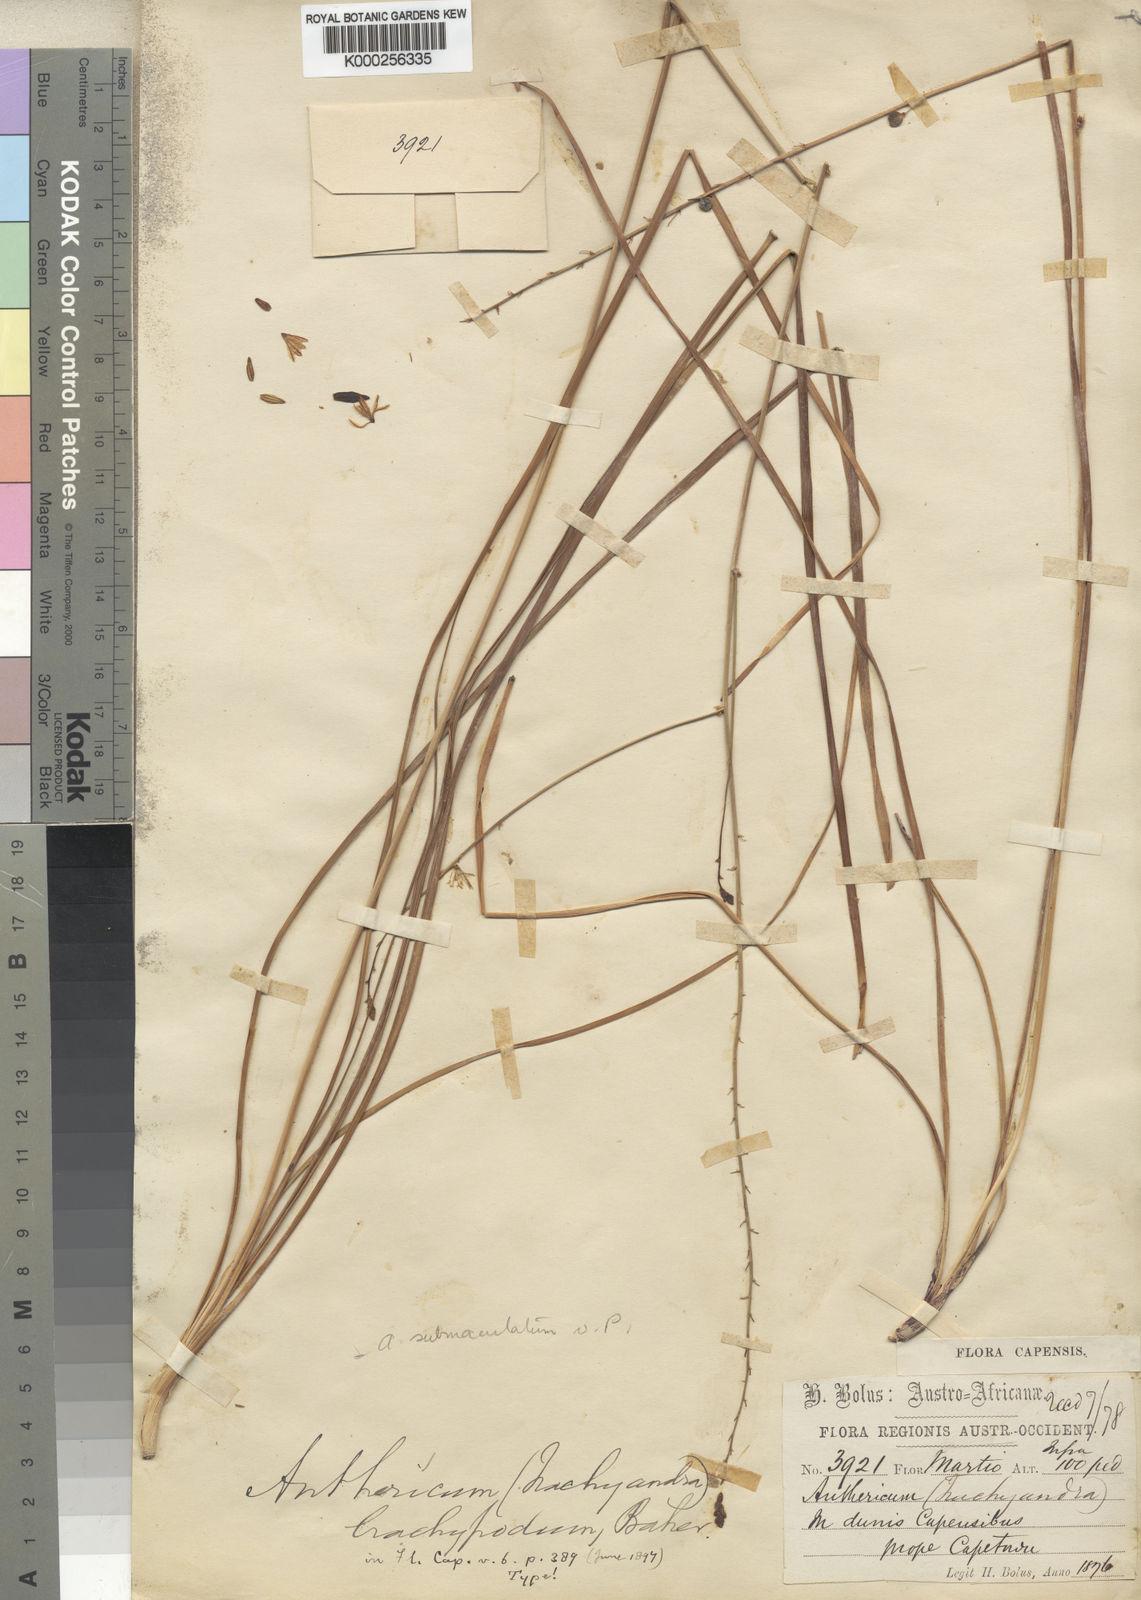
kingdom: Plantae
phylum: Tracheophyta
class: Liliopsida
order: Asparagales
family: Asphodelaceae
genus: Trachyandra
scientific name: Trachyandra brachypoda
